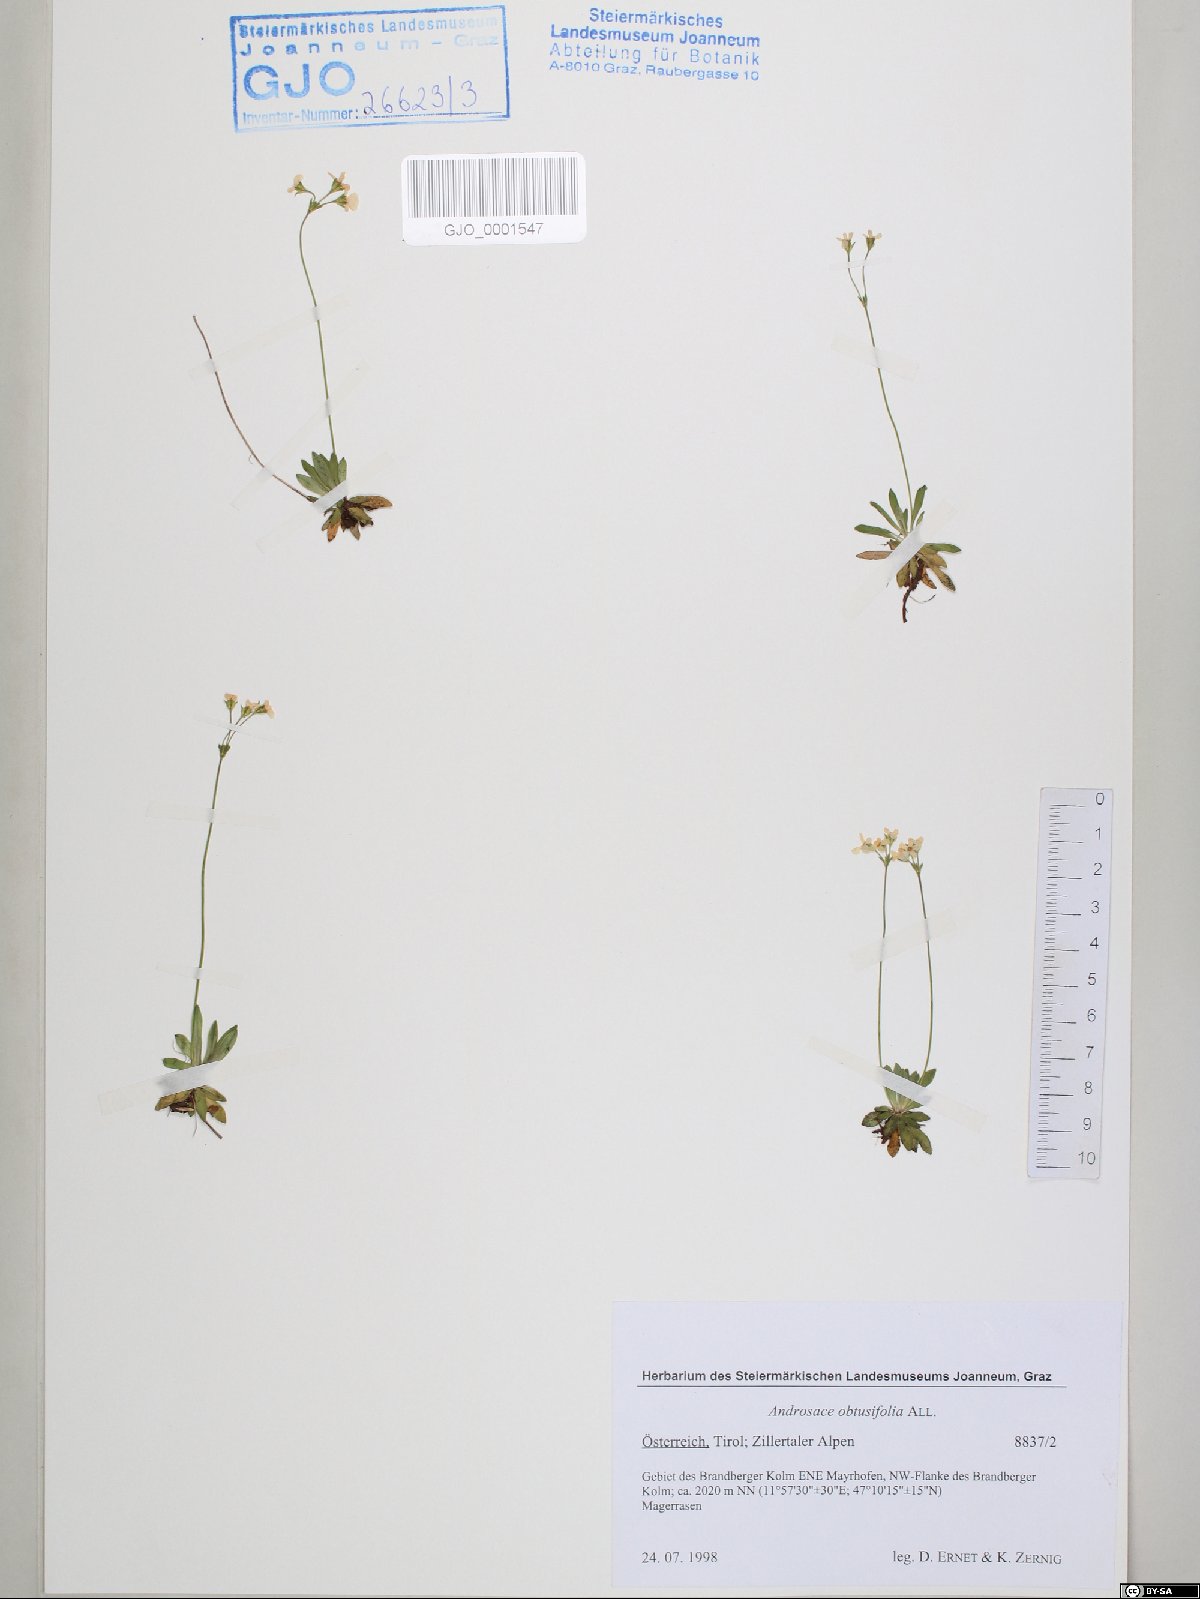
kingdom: Plantae
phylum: Tracheophyta
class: Magnoliopsida
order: Ericales
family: Primulaceae
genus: Androsace
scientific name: Androsace obtusifolia
